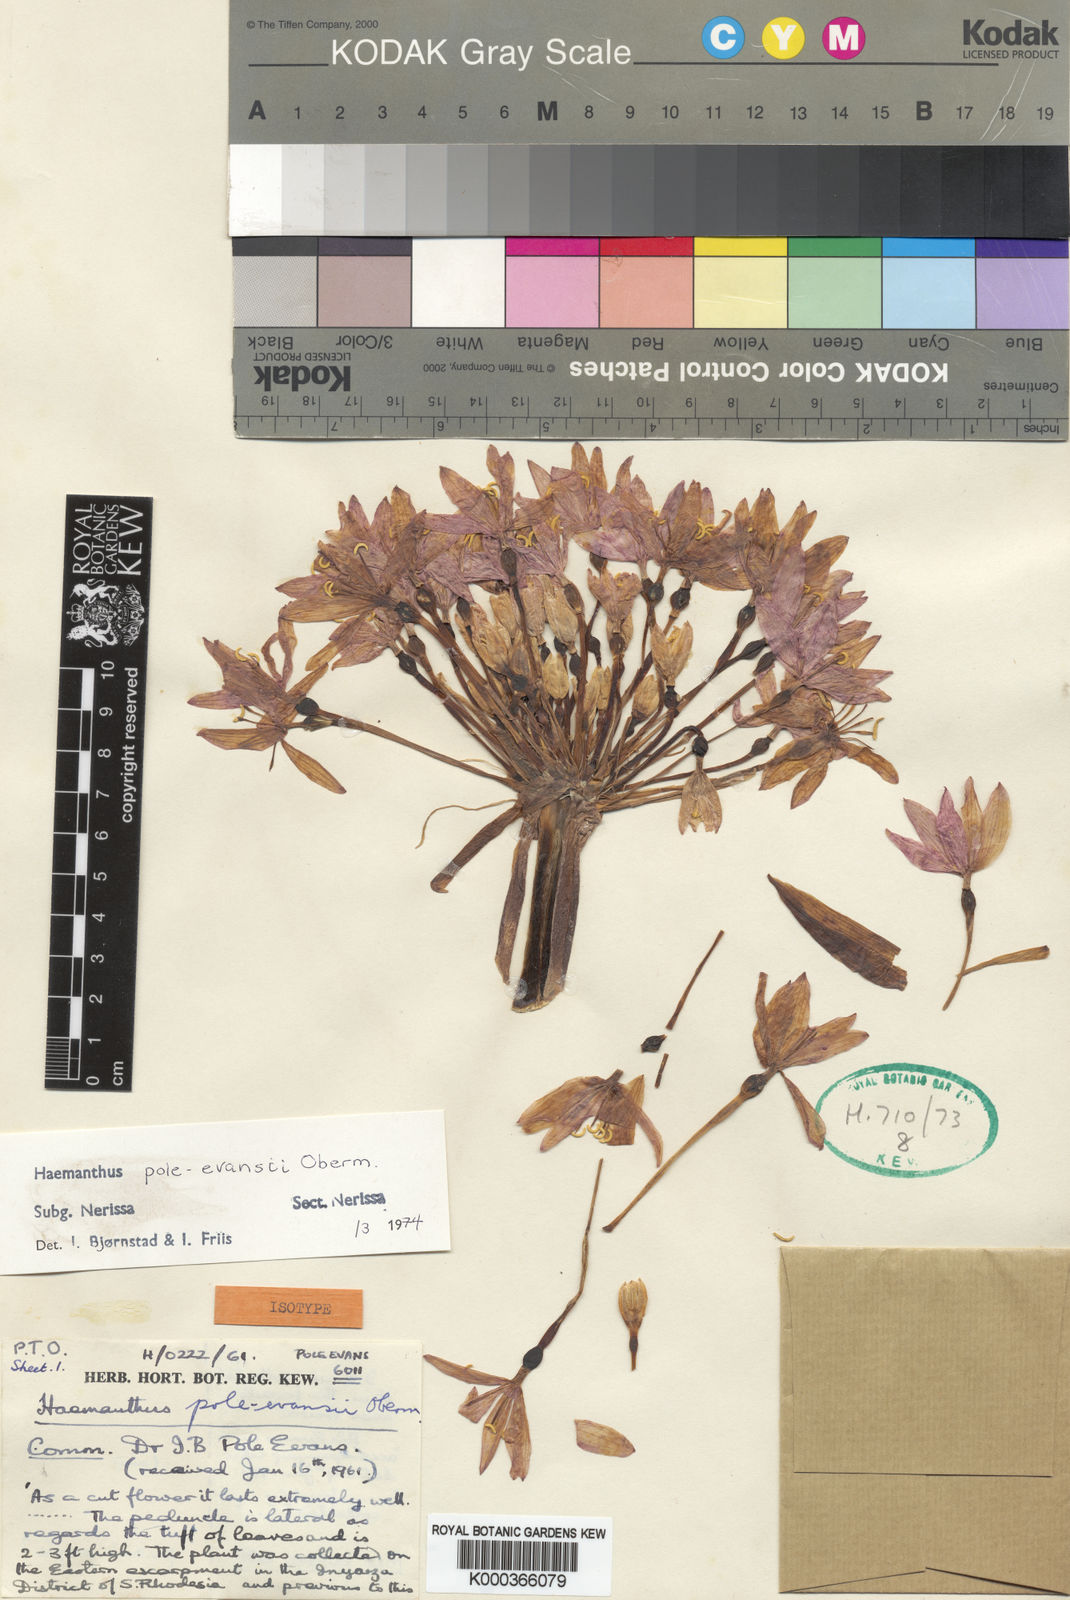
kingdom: Plantae
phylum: Tracheophyta
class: Liliopsida
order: Asparagales
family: Amaryllidaceae
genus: Scadoxus
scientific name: Scadoxus pole-evansii
